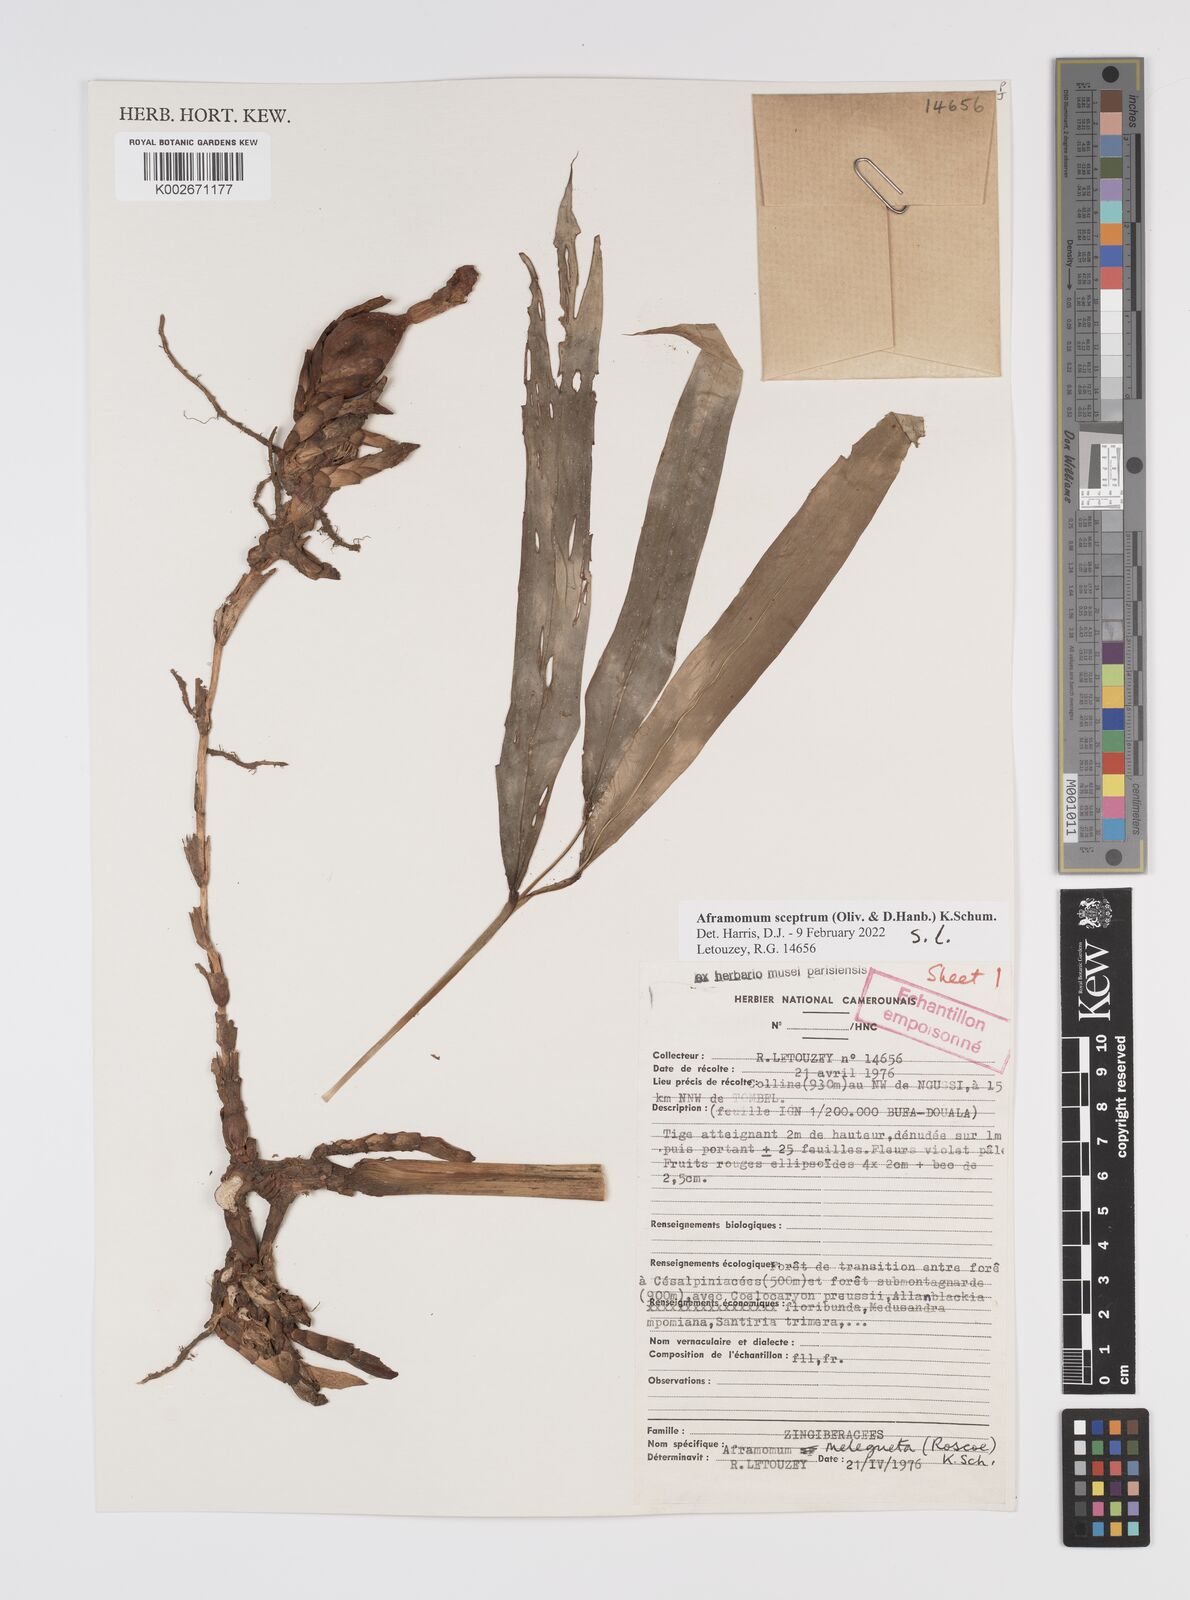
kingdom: Plantae
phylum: Tracheophyta
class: Liliopsida
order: Zingiberales
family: Zingiberaceae
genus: Aframomum
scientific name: Aframomum cereum
